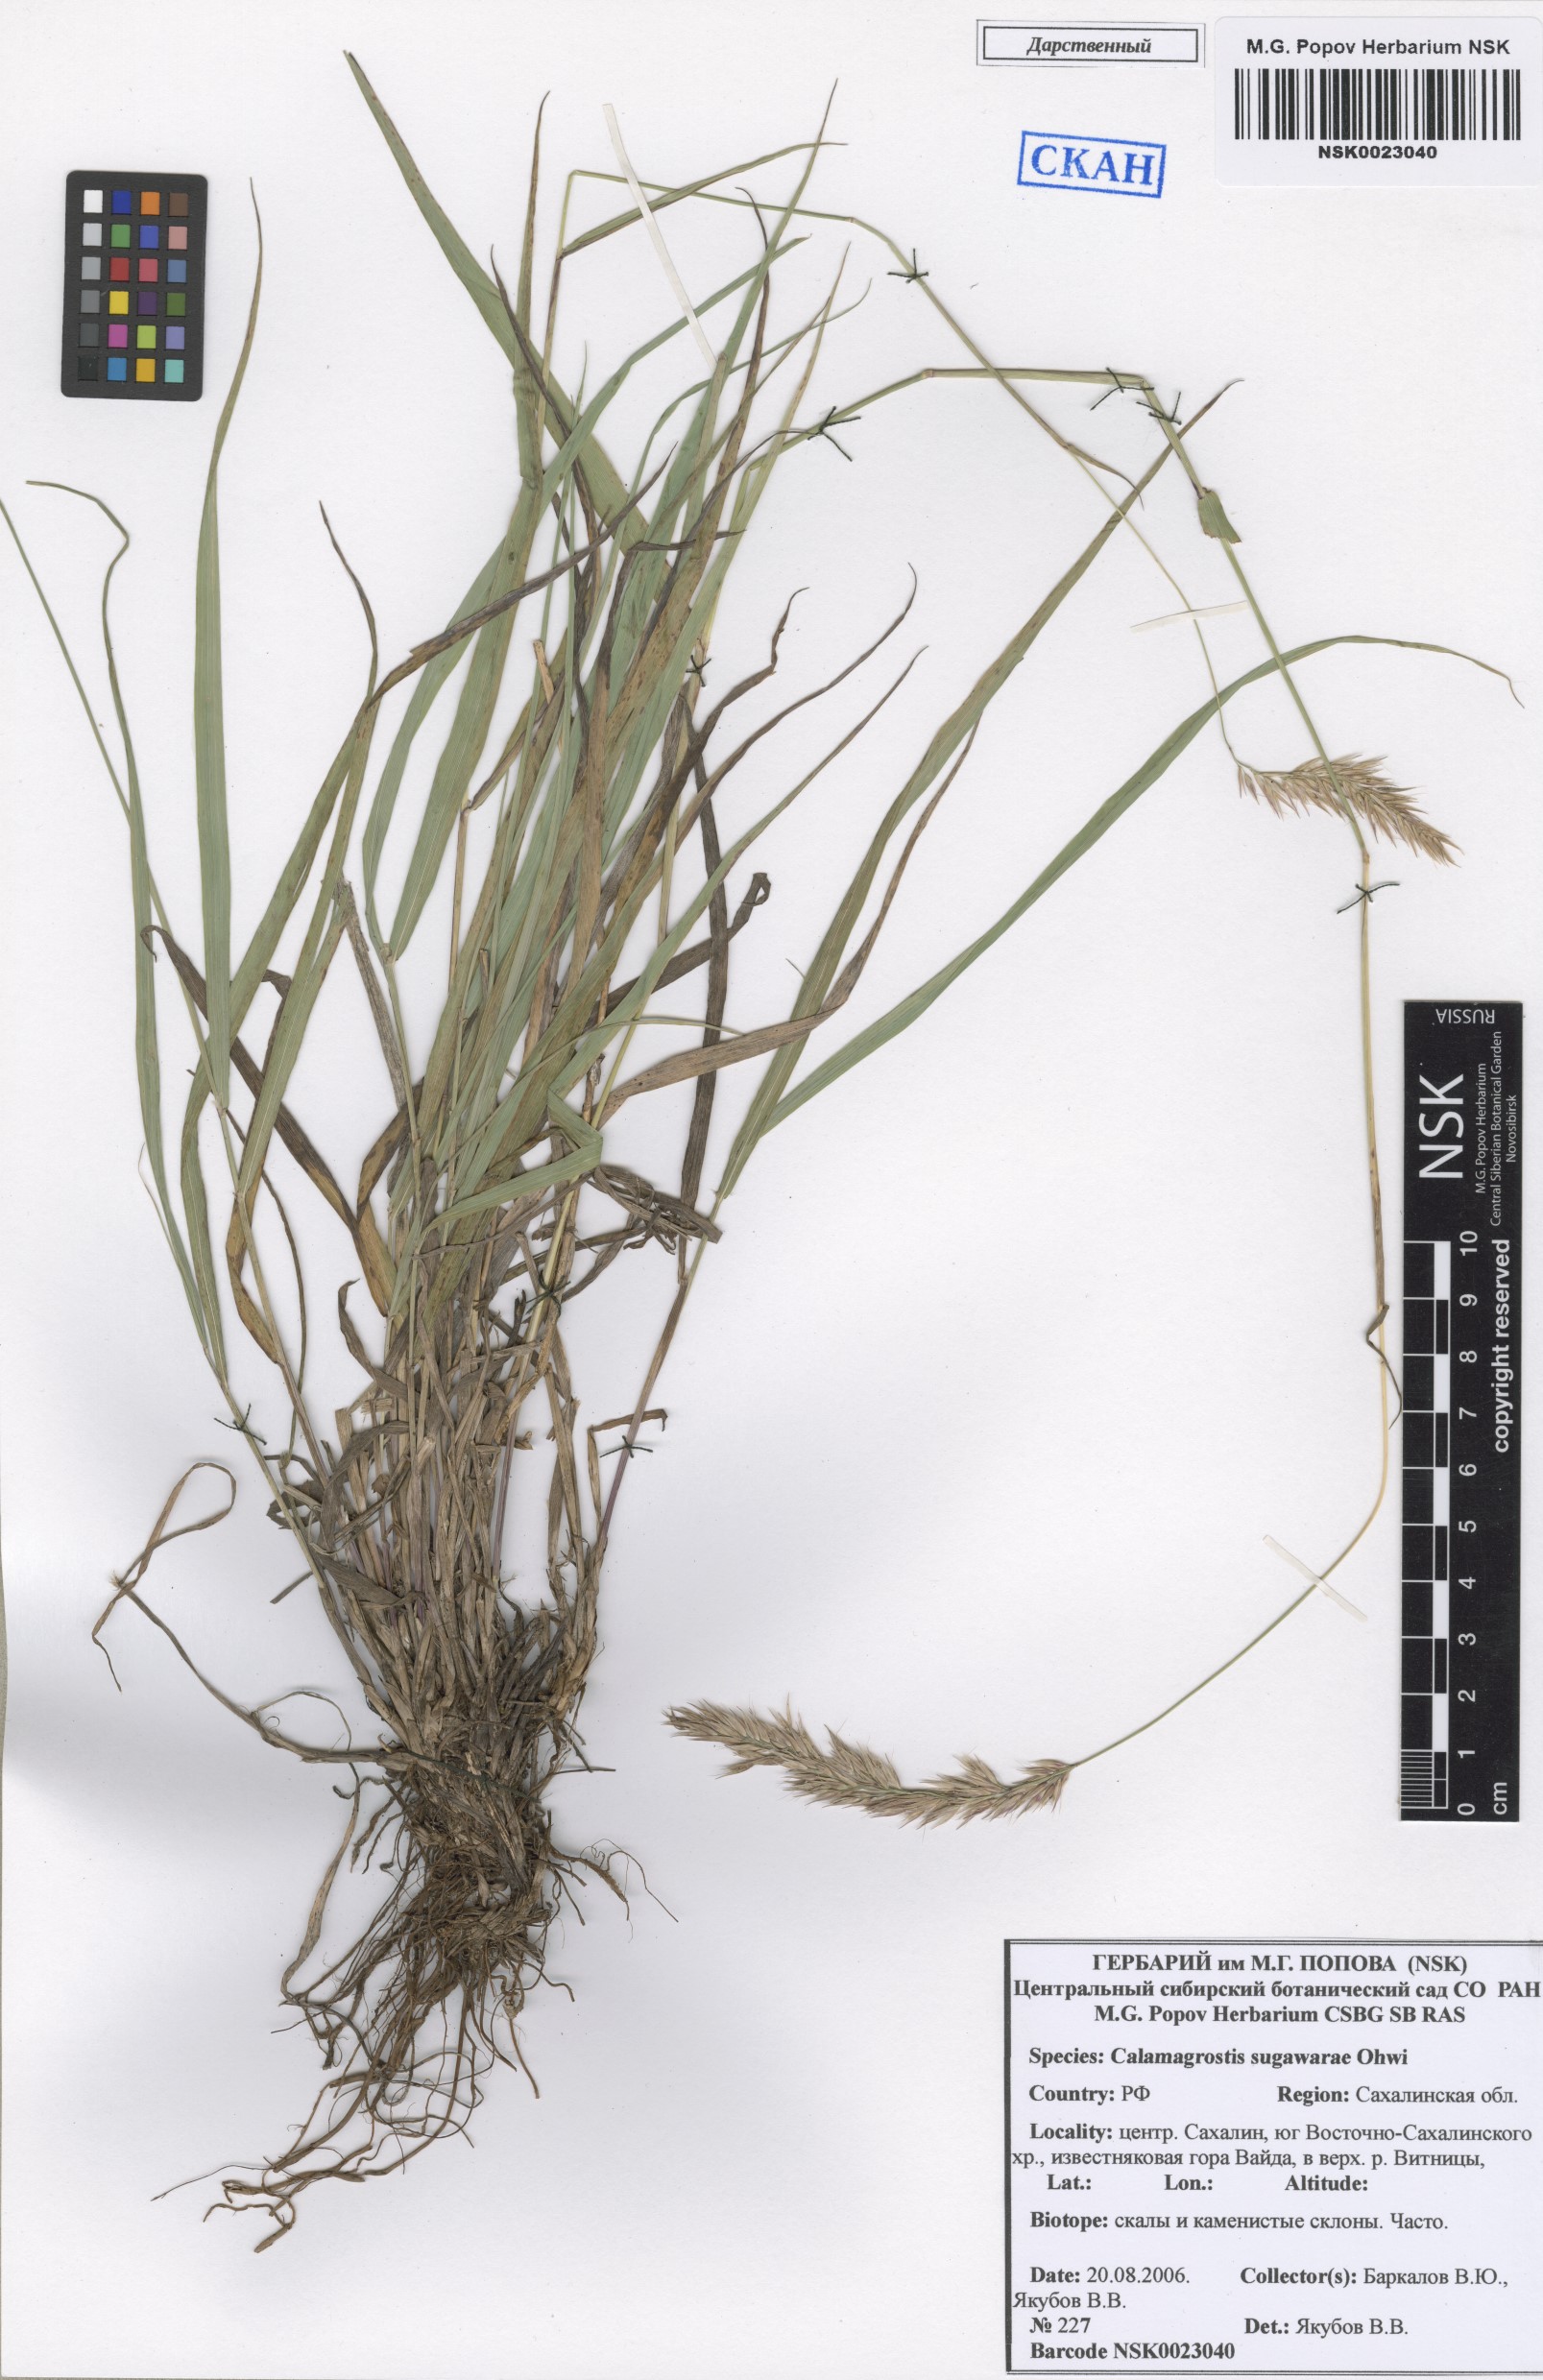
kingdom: Plantae
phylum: Tracheophyta
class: Liliopsida
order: Poales
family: Poaceae
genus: Calamagrostis
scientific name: Calamagrostis arundinacea
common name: Metskastik
